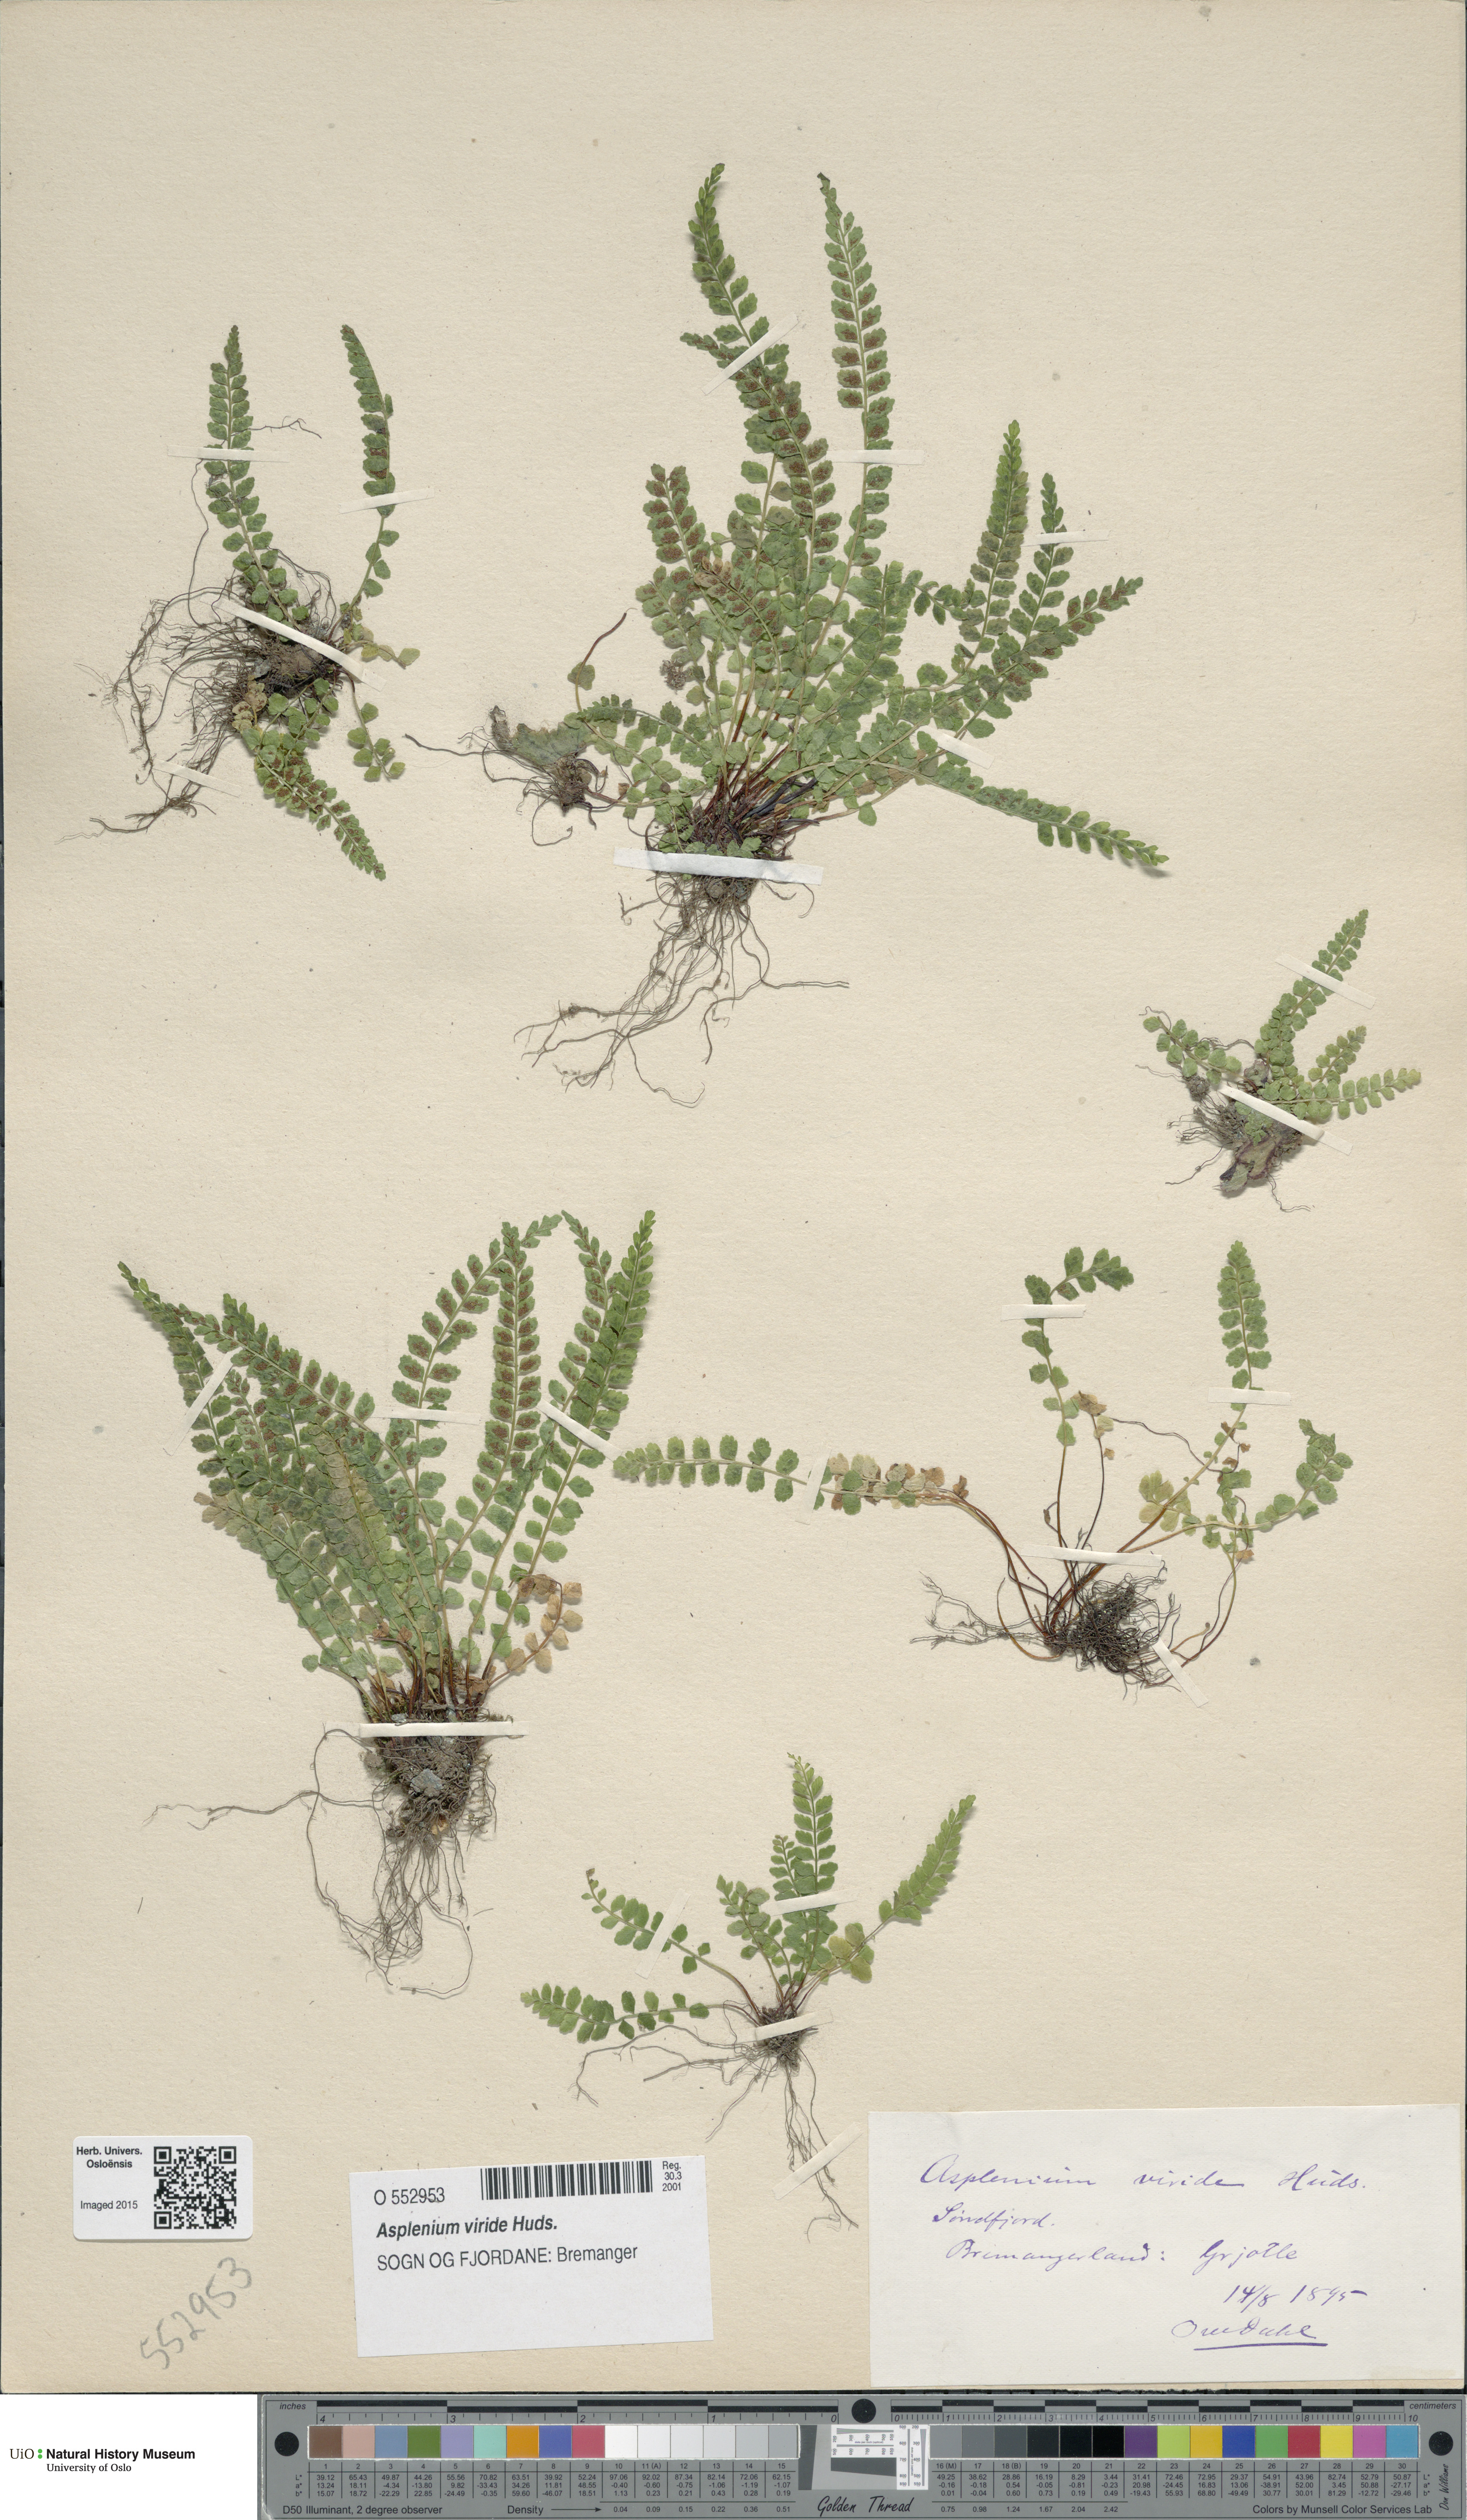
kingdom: Plantae
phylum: Tracheophyta
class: Polypodiopsida
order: Polypodiales
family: Aspleniaceae
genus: Asplenium
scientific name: Asplenium viride
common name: Green spleenwort
